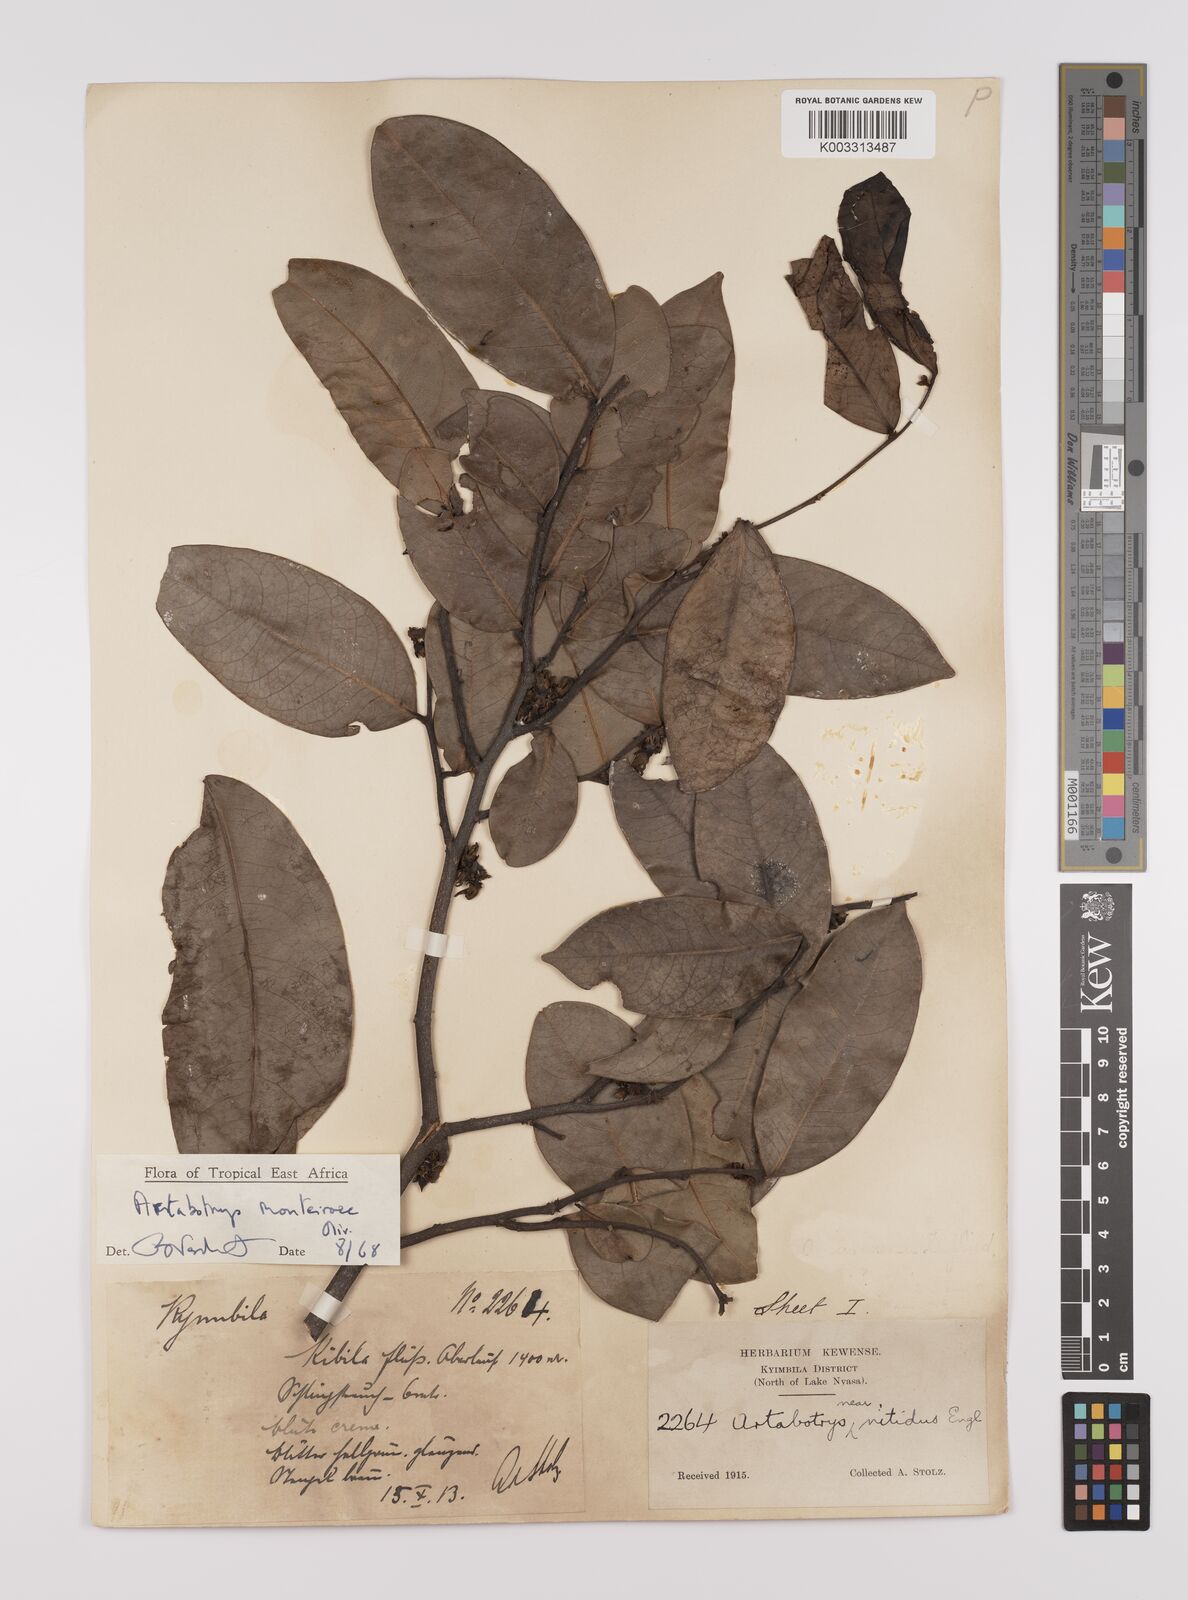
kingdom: Plantae
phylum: Tracheophyta
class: Magnoliopsida
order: Magnoliales
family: Annonaceae
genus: Artabotrys
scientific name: Artabotrys monteiroae
